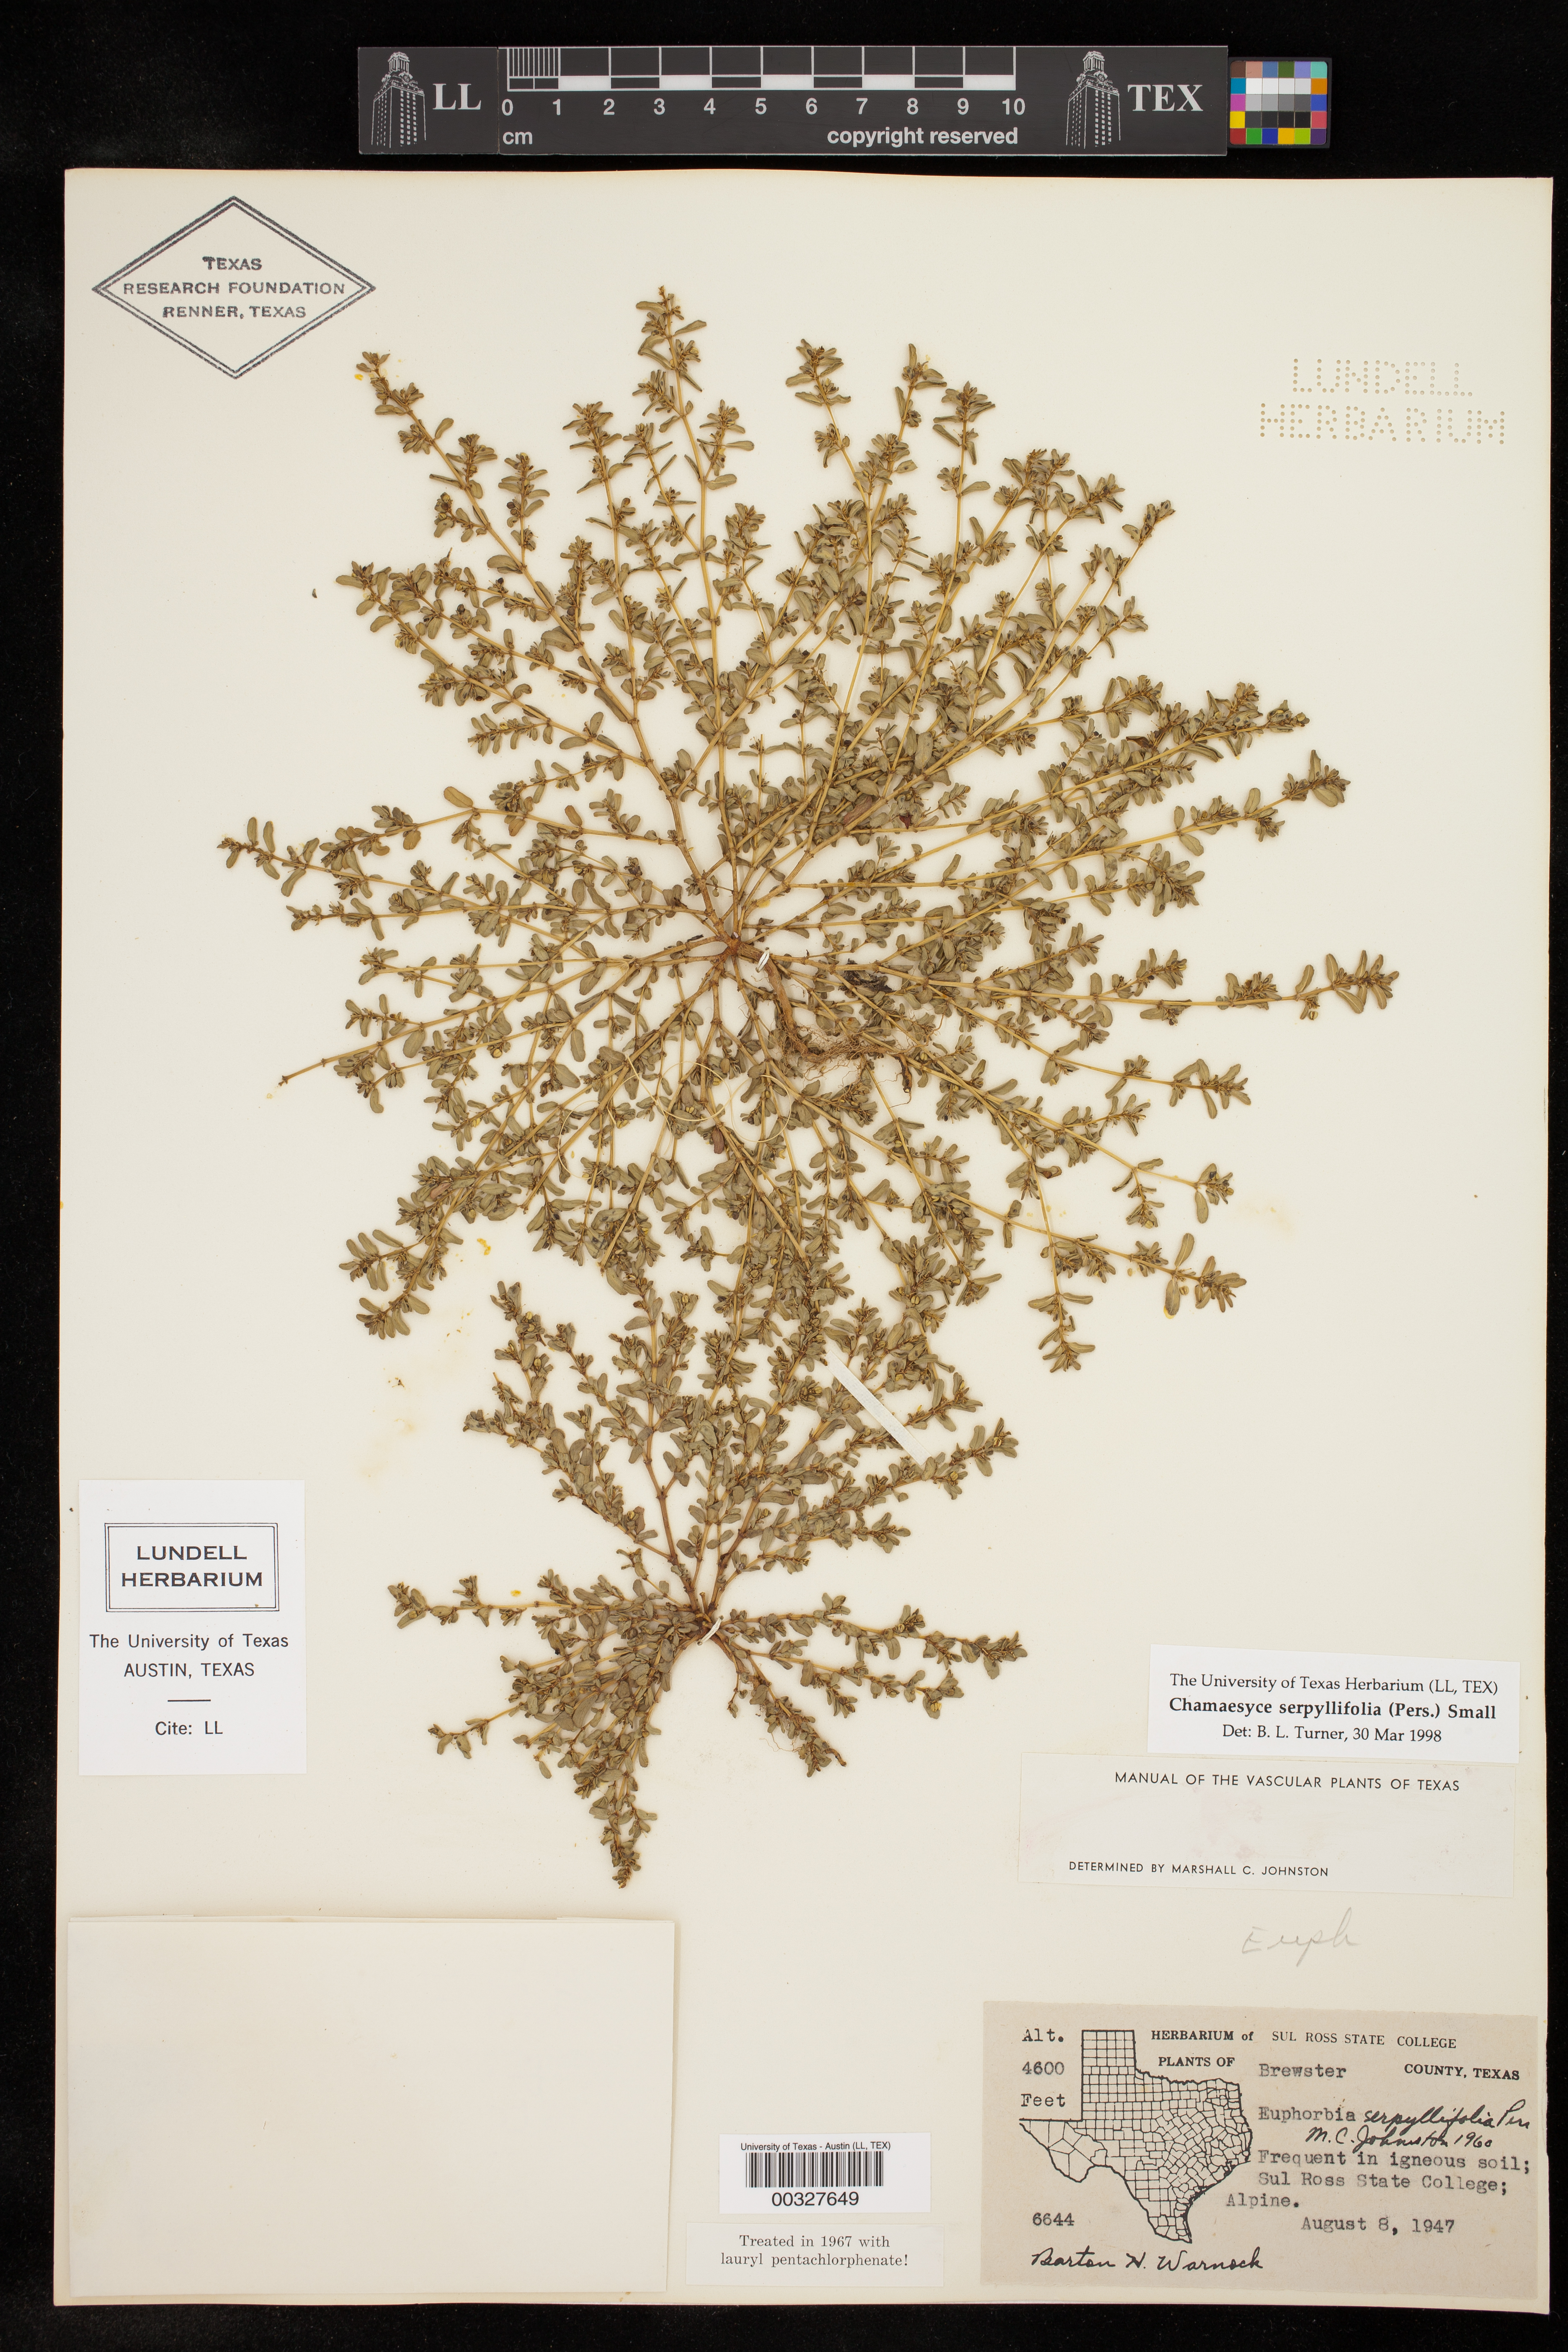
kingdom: Plantae
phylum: Tracheophyta
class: Magnoliopsida
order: Malpighiales
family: Euphorbiaceae
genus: Euphorbia
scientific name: Euphorbia serpillifolia
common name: Thyme-leaf spurge
